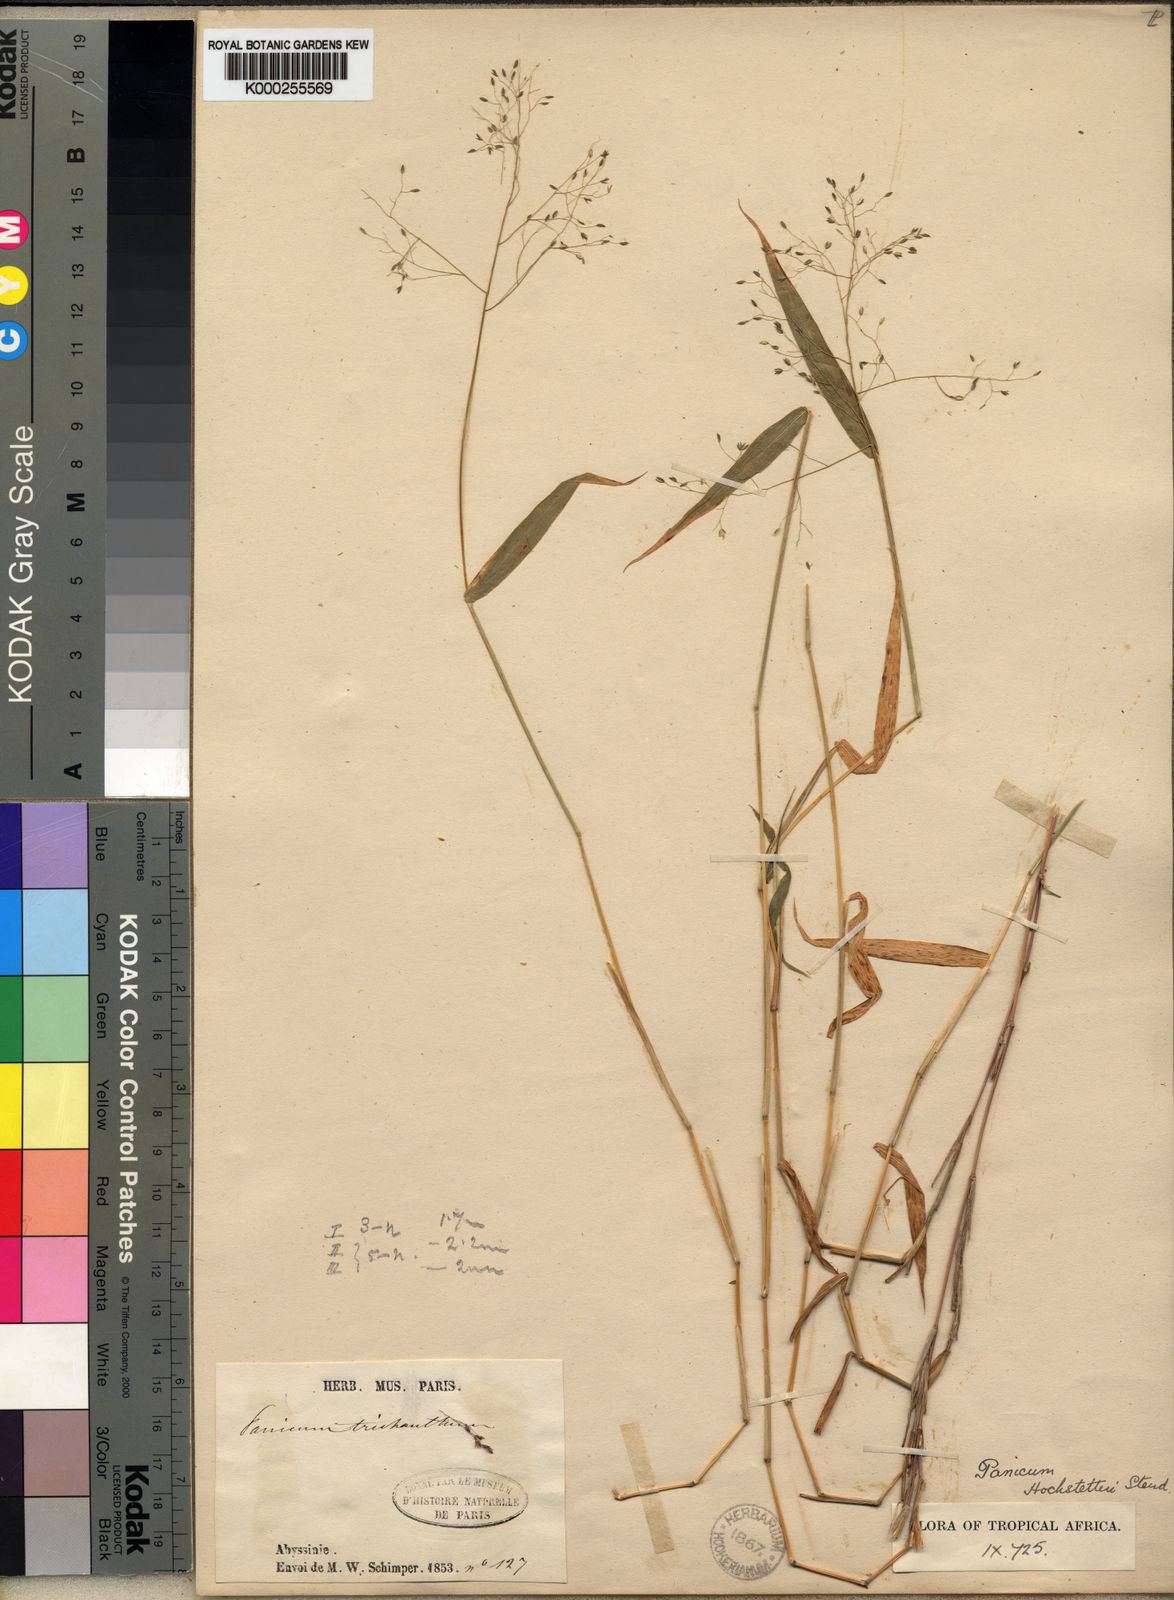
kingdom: Plantae
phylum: Tracheophyta
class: Liliopsida
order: Poales
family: Poaceae
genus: Panicum
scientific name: Panicum hochstetteri
